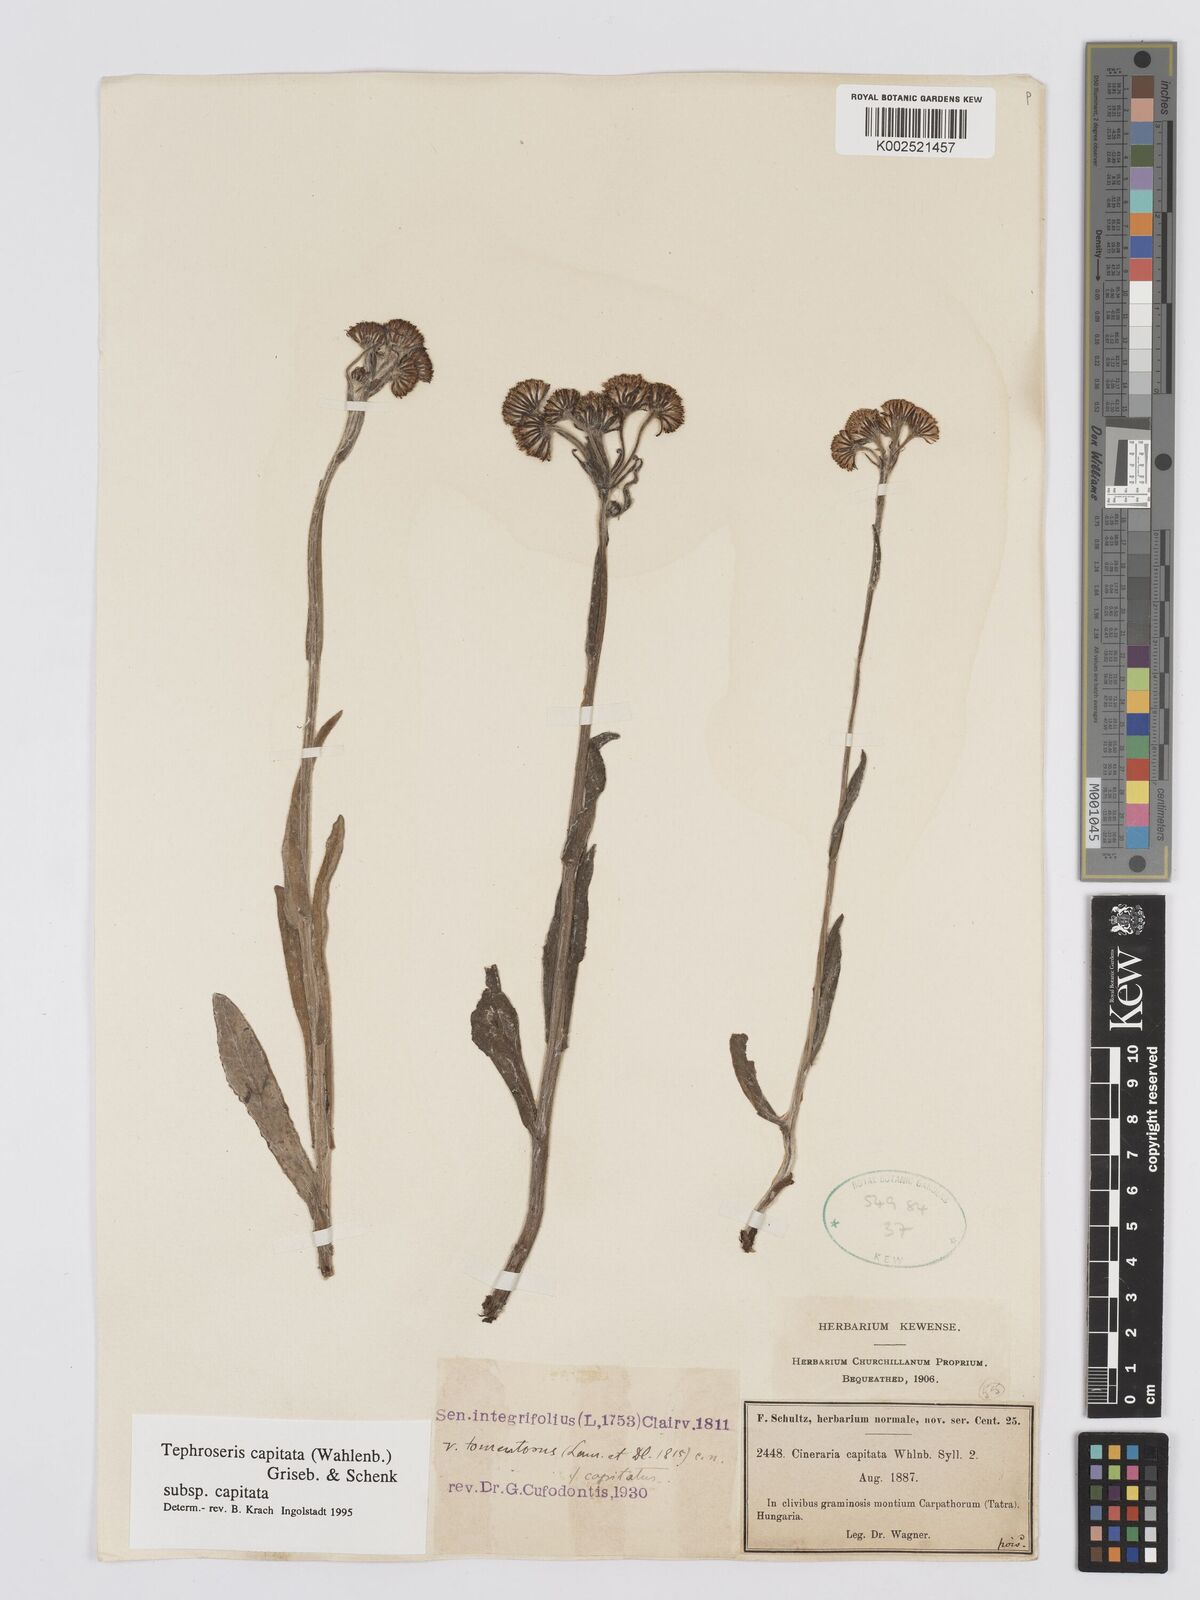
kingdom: Plantae
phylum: Tracheophyta
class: Magnoliopsida
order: Asterales
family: Asteraceae
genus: Tephroseris
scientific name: Tephroseris integrifolia
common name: Field fleawort
